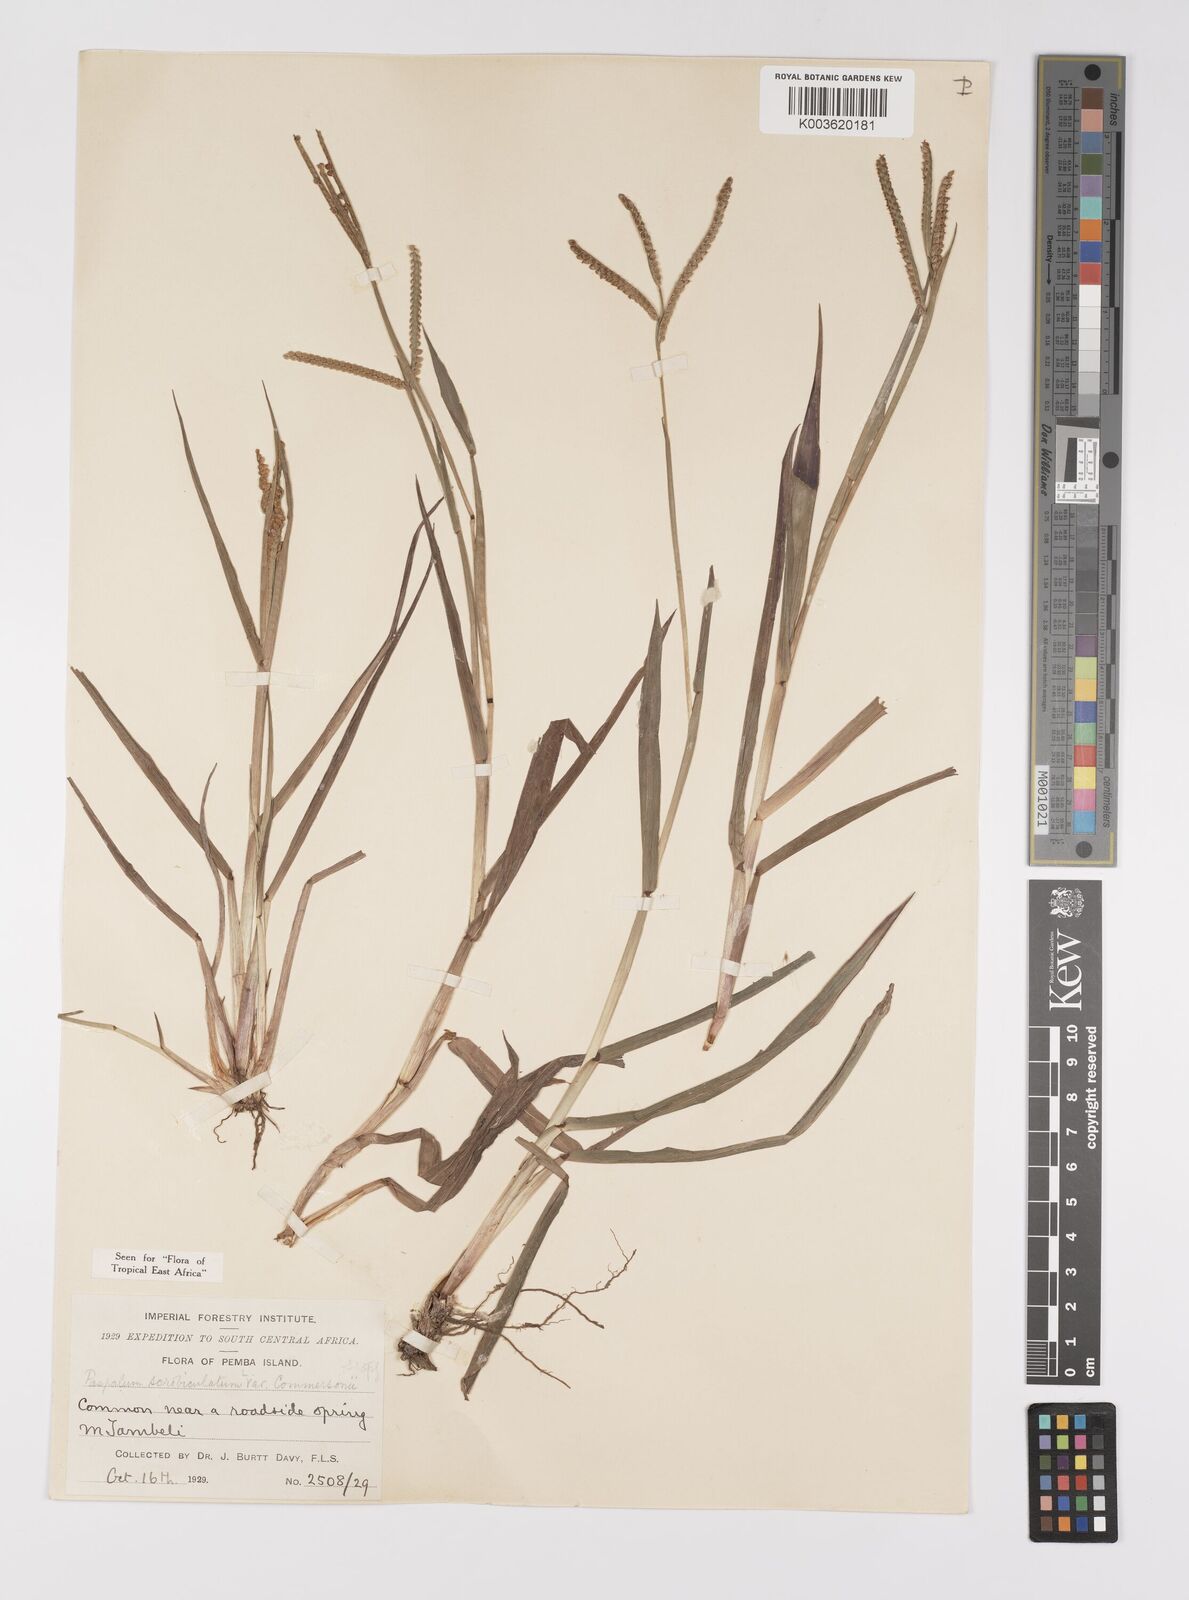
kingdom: Plantae
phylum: Tracheophyta
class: Liliopsida
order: Poales
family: Poaceae
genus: Paspalum
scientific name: Paspalum scrobiculatum
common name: Kodo millet
